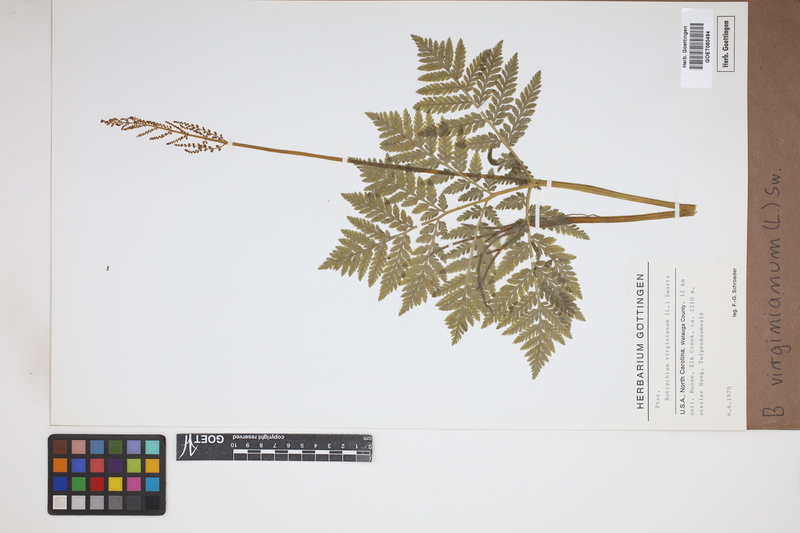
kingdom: Plantae
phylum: Tracheophyta
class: Polypodiopsida
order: Ophioglossales
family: Ophioglossaceae
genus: Botrychium
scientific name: Botrychium virginianum
